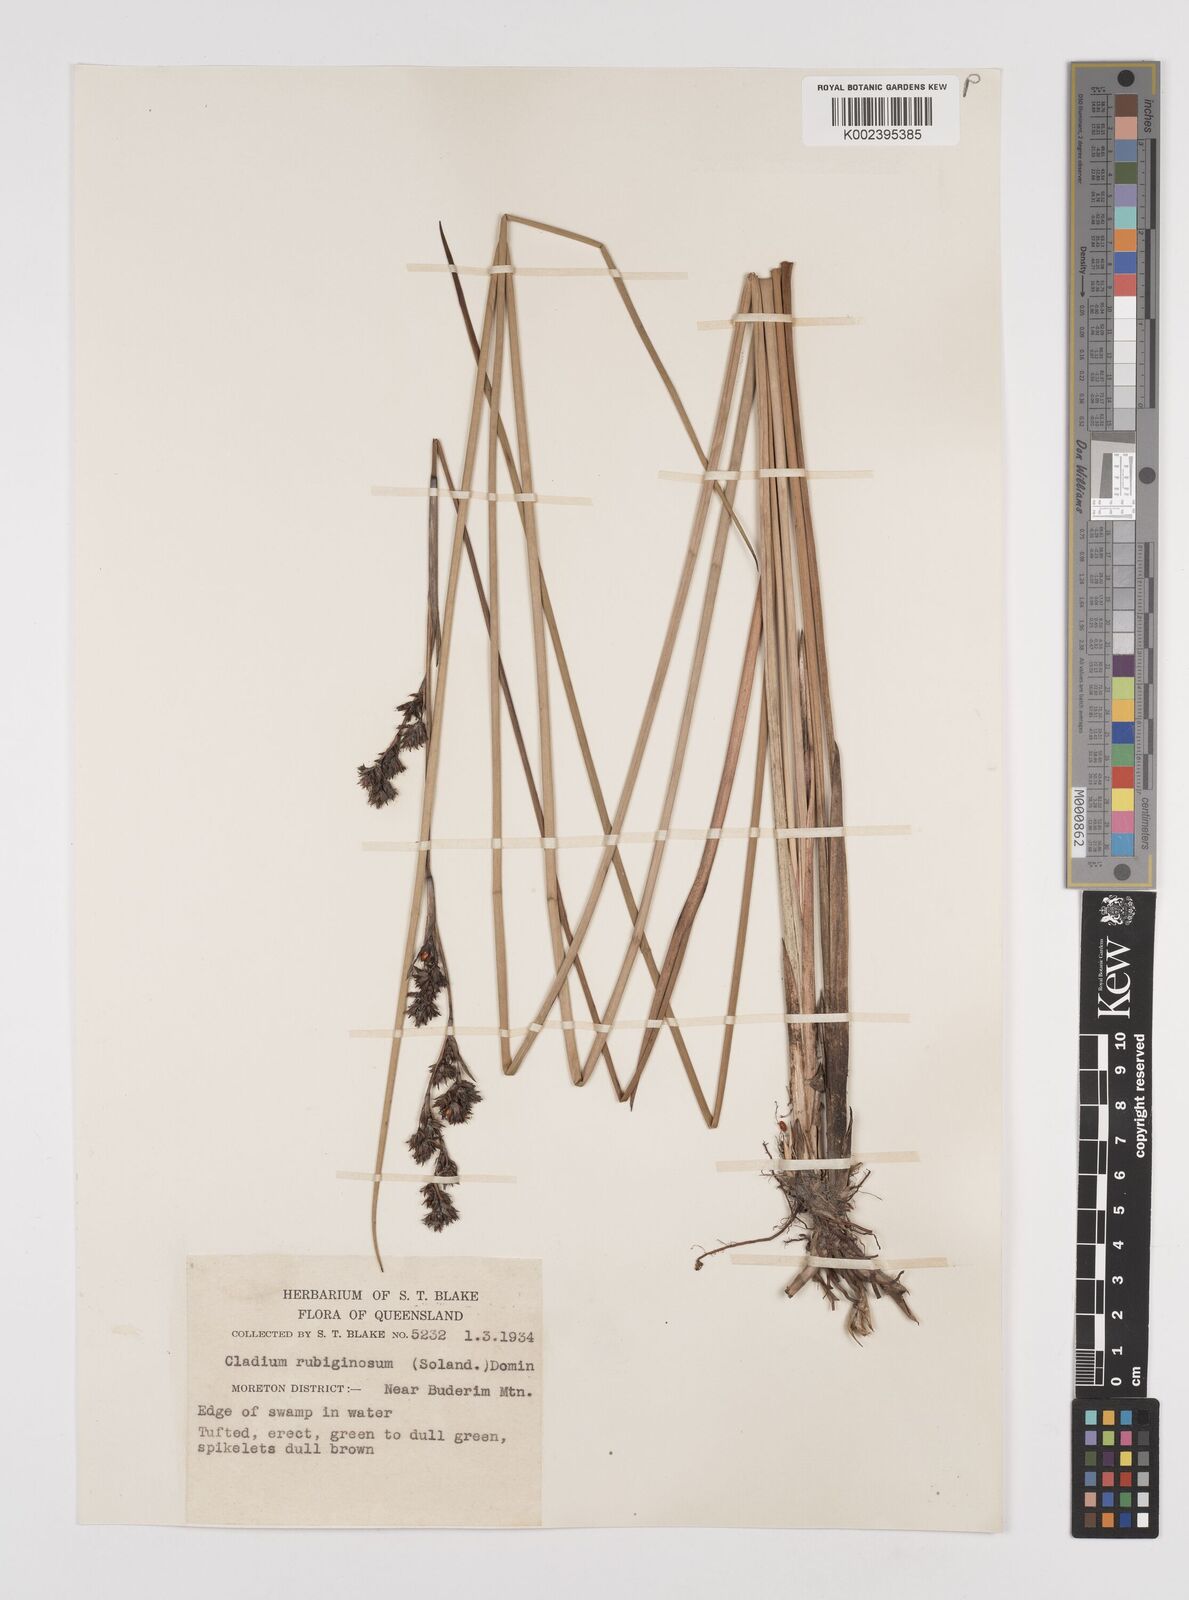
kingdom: Plantae
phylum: Tracheophyta
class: Liliopsida
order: Poales
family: Cyperaceae
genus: Machaerina
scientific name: Machaerina rubiginosa
